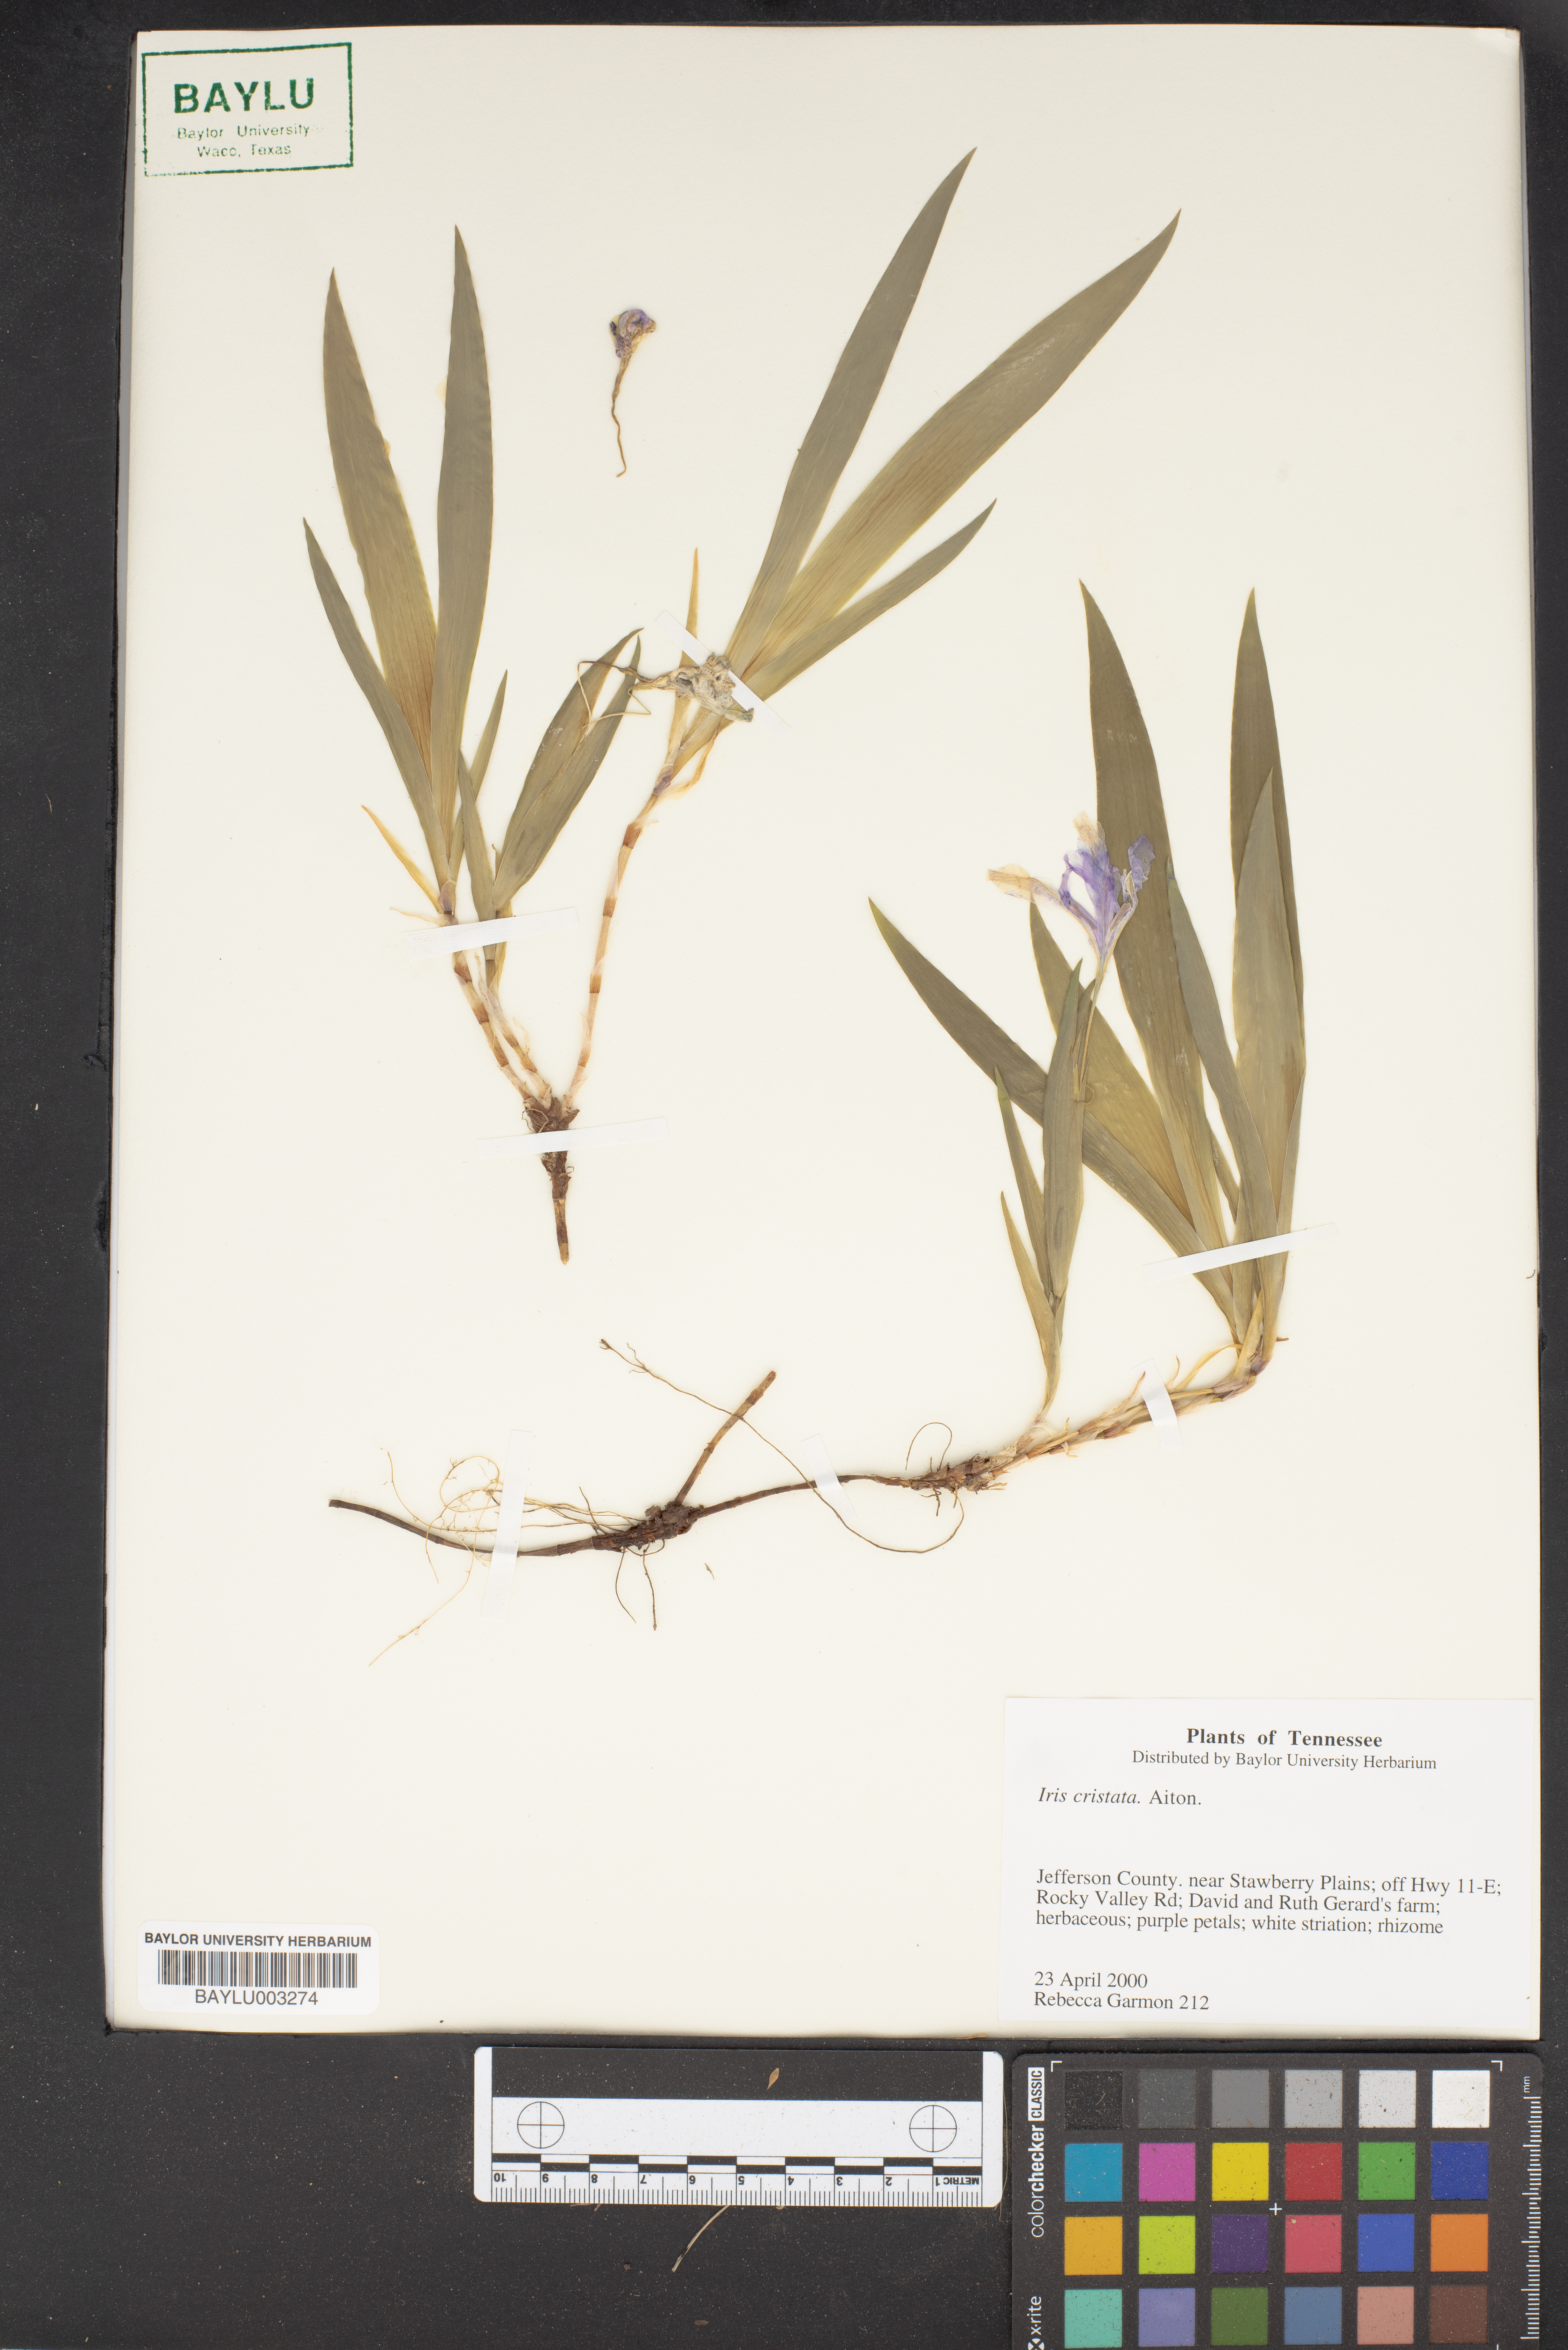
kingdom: Plantae
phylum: Tracheophyta
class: Liliopsida
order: Asparagales
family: Iridaceae
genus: Iris
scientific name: Iris cristata
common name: Crested iris
